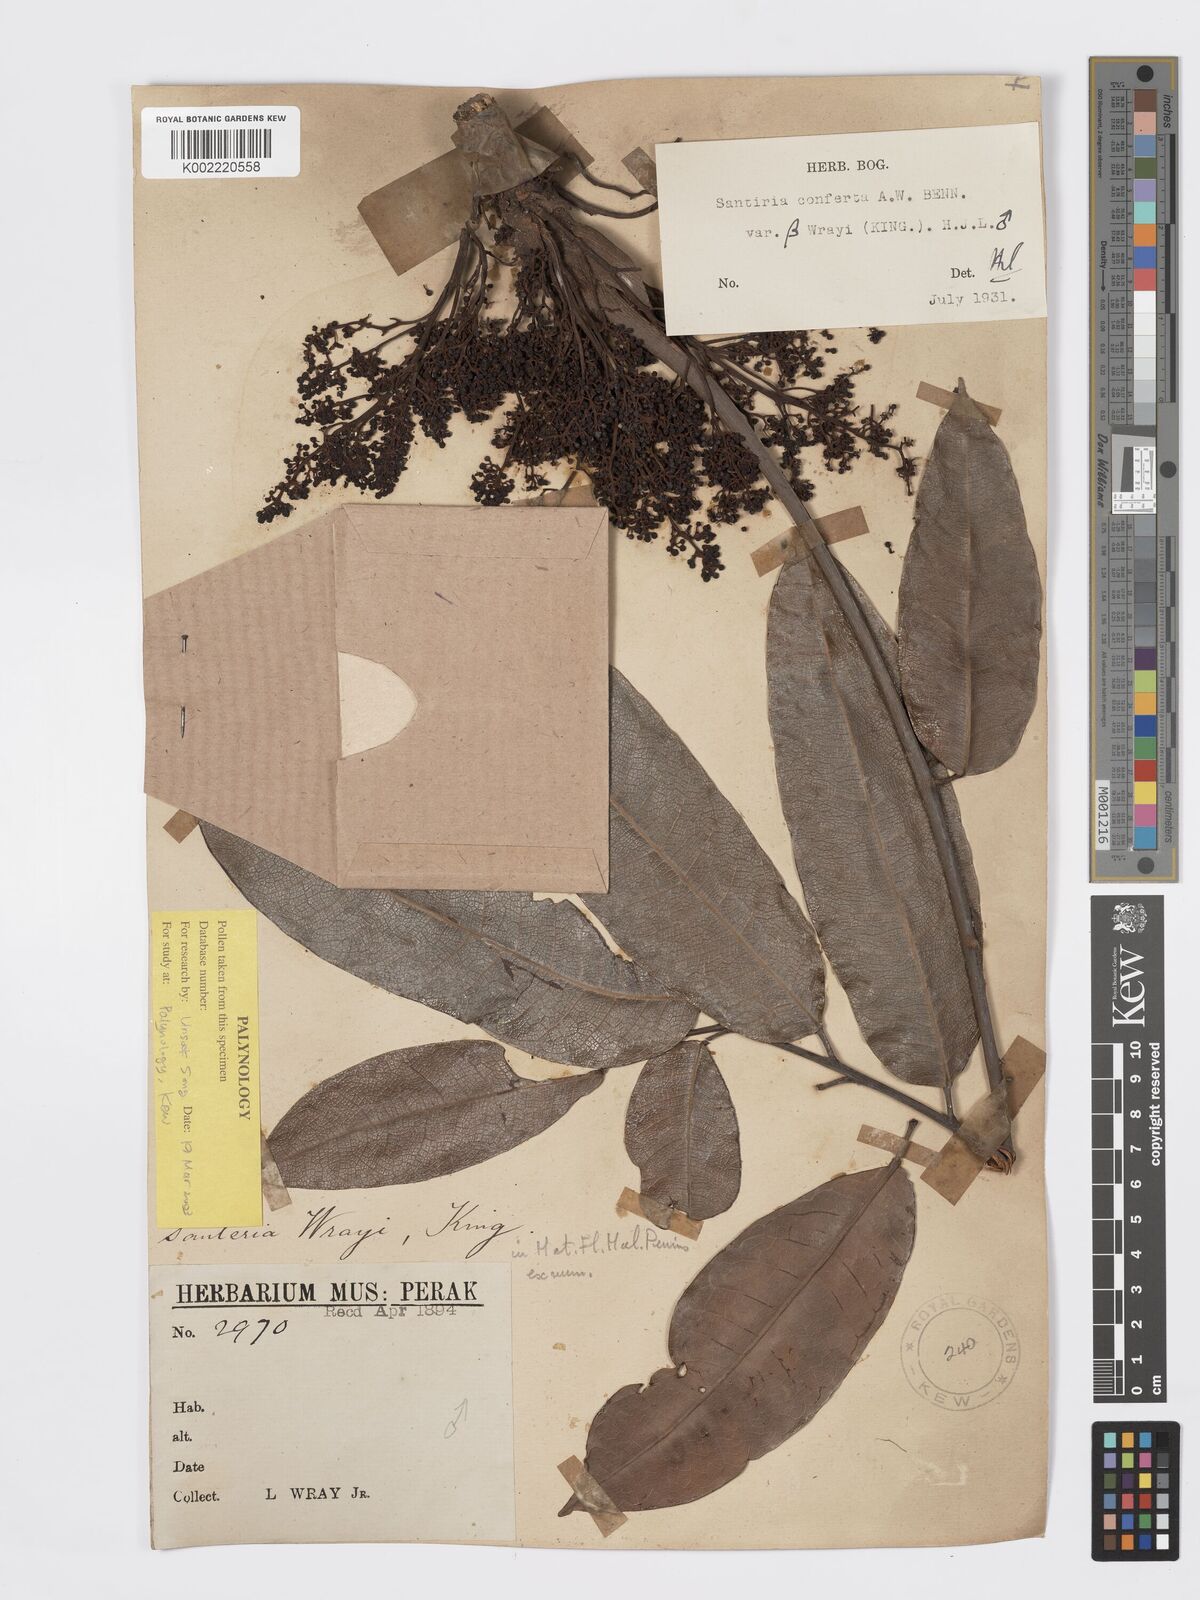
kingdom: Plantae
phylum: Tracheophyta
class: Magnoliopsida
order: Sapindales
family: Burseraceae
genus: Santiria
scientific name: Santiria conferta
